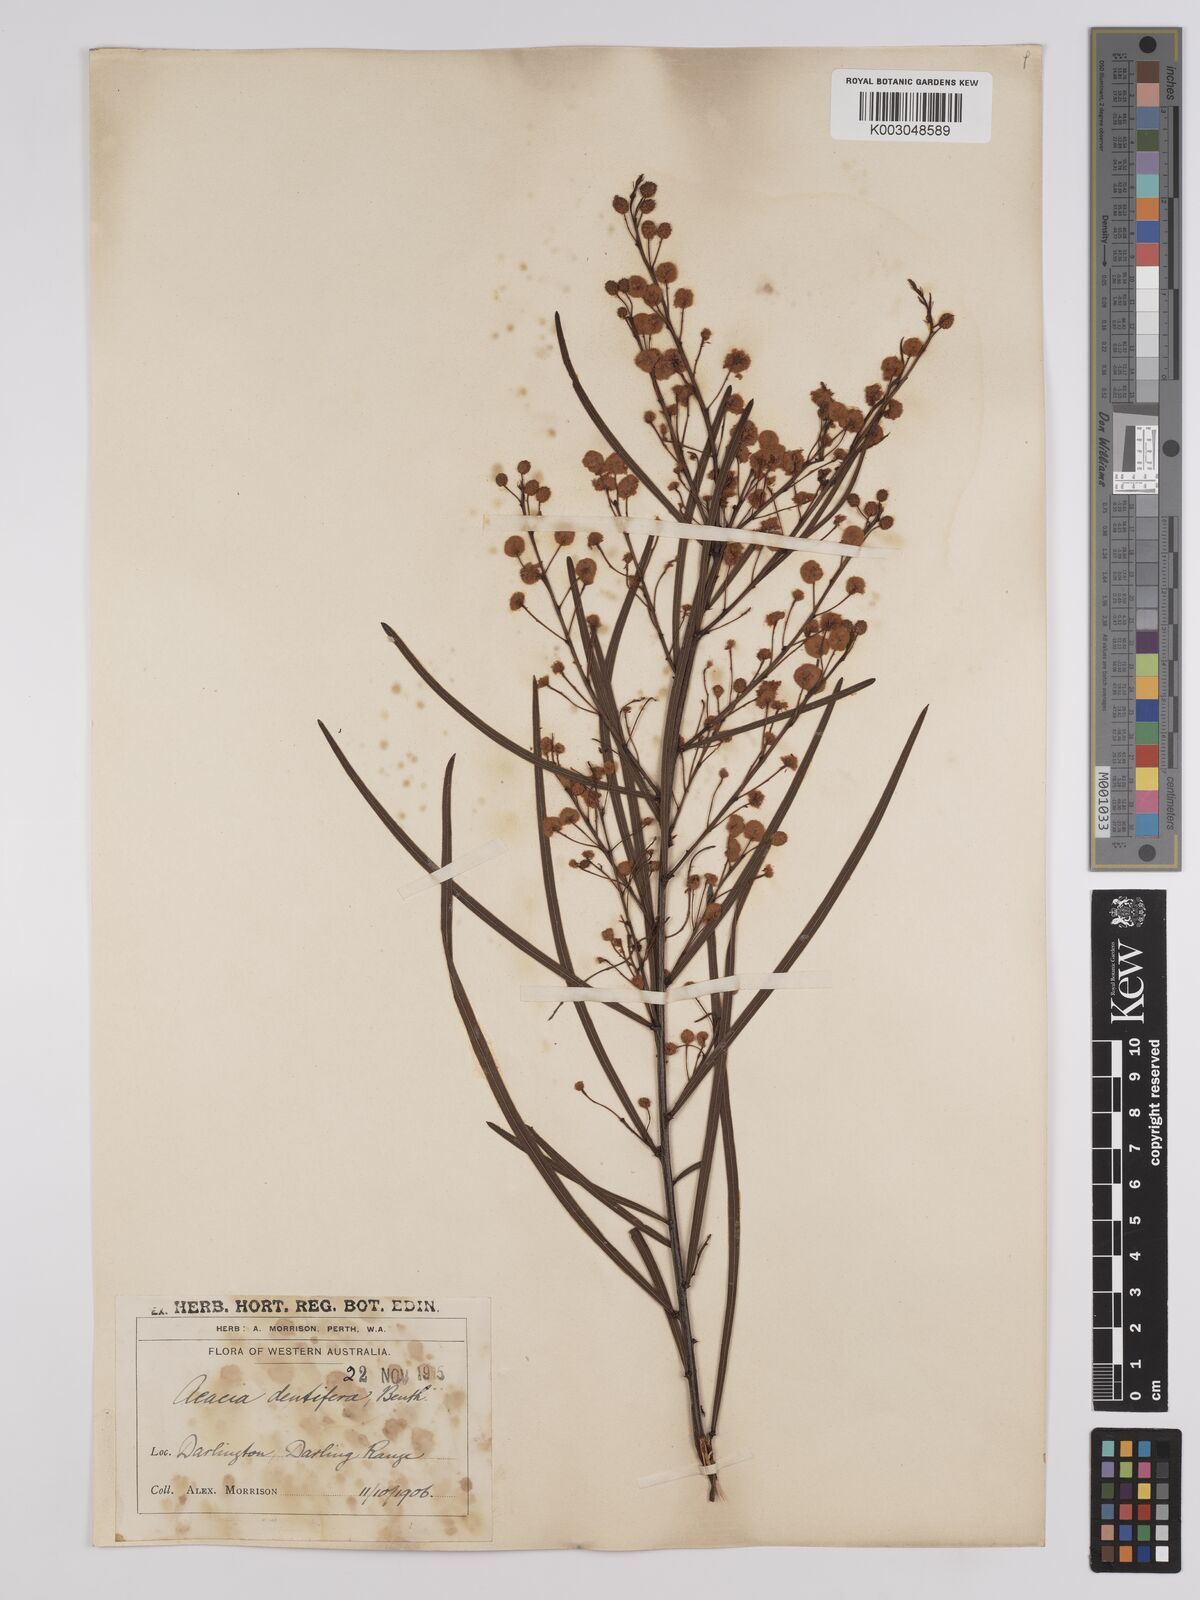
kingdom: Plantae
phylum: Tracheophyta
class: Magnoliopsida
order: Fabales
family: Fabaceae
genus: Acacia
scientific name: Acacia dentifera
